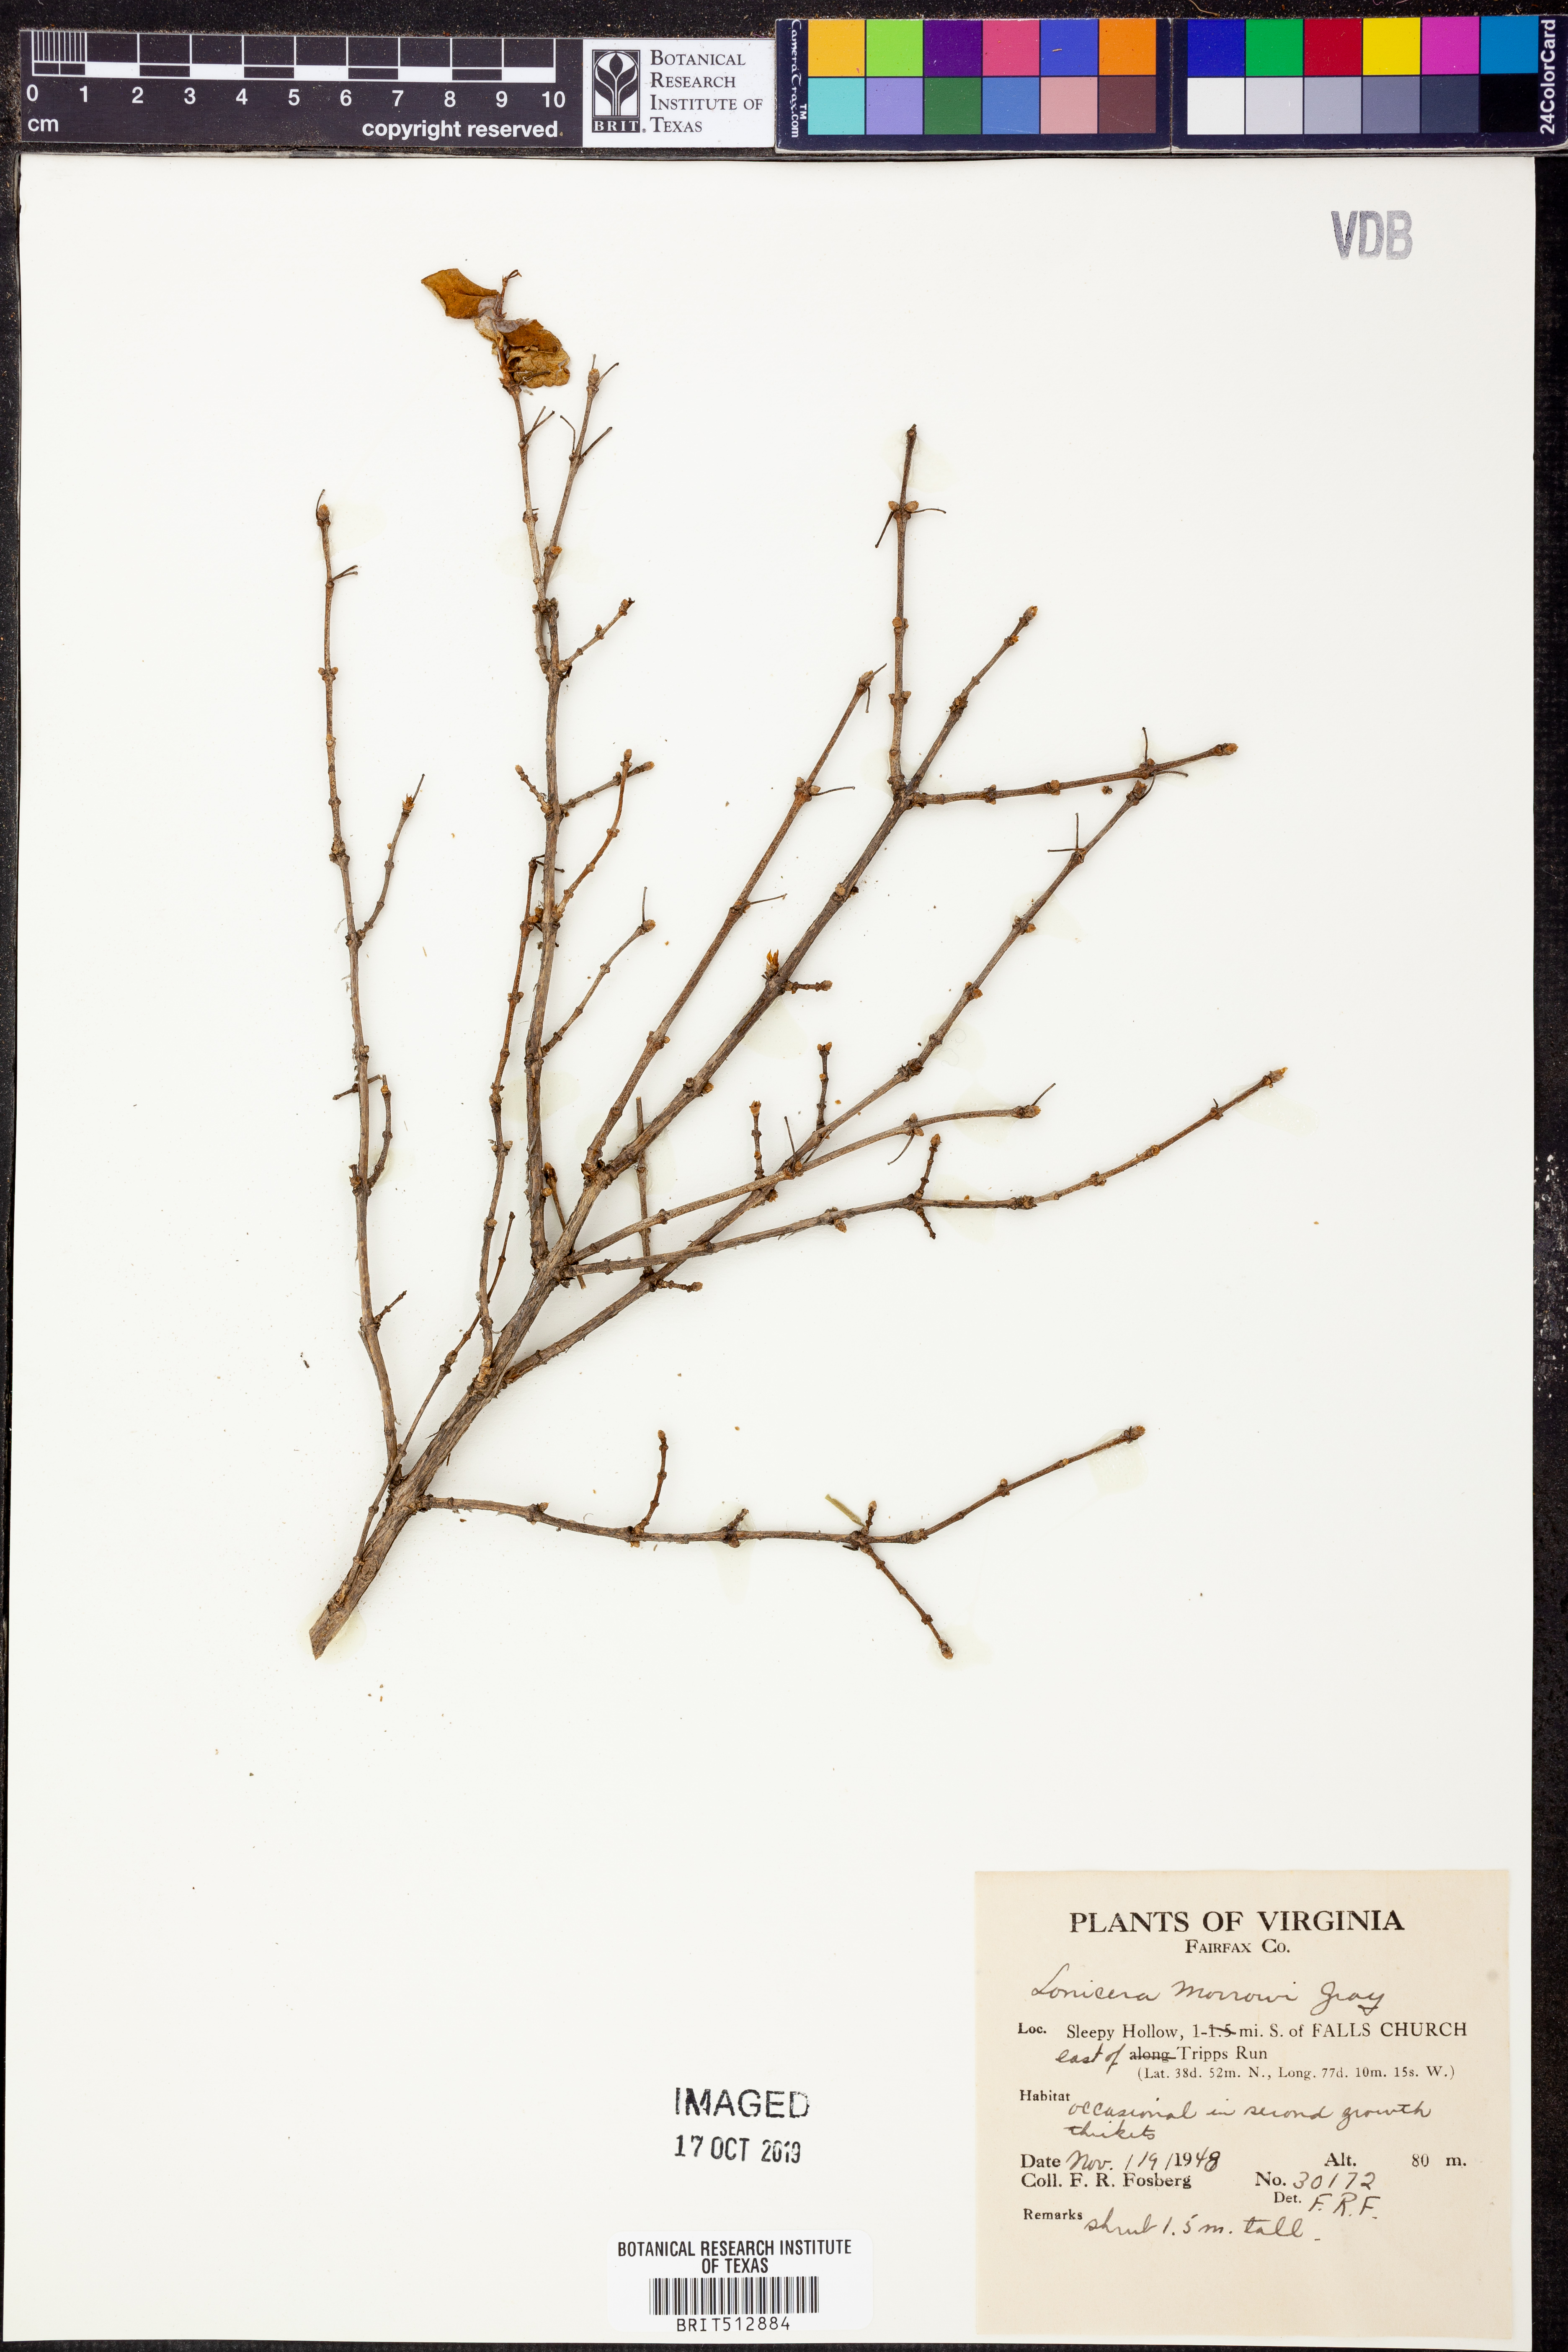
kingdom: Plantae
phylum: Tracheophyta
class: Magnoliopsida
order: Dipsacales
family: Caprifoliaceae
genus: Lonicera
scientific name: Lonicera morrowii
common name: Morrow's honeysuckle
